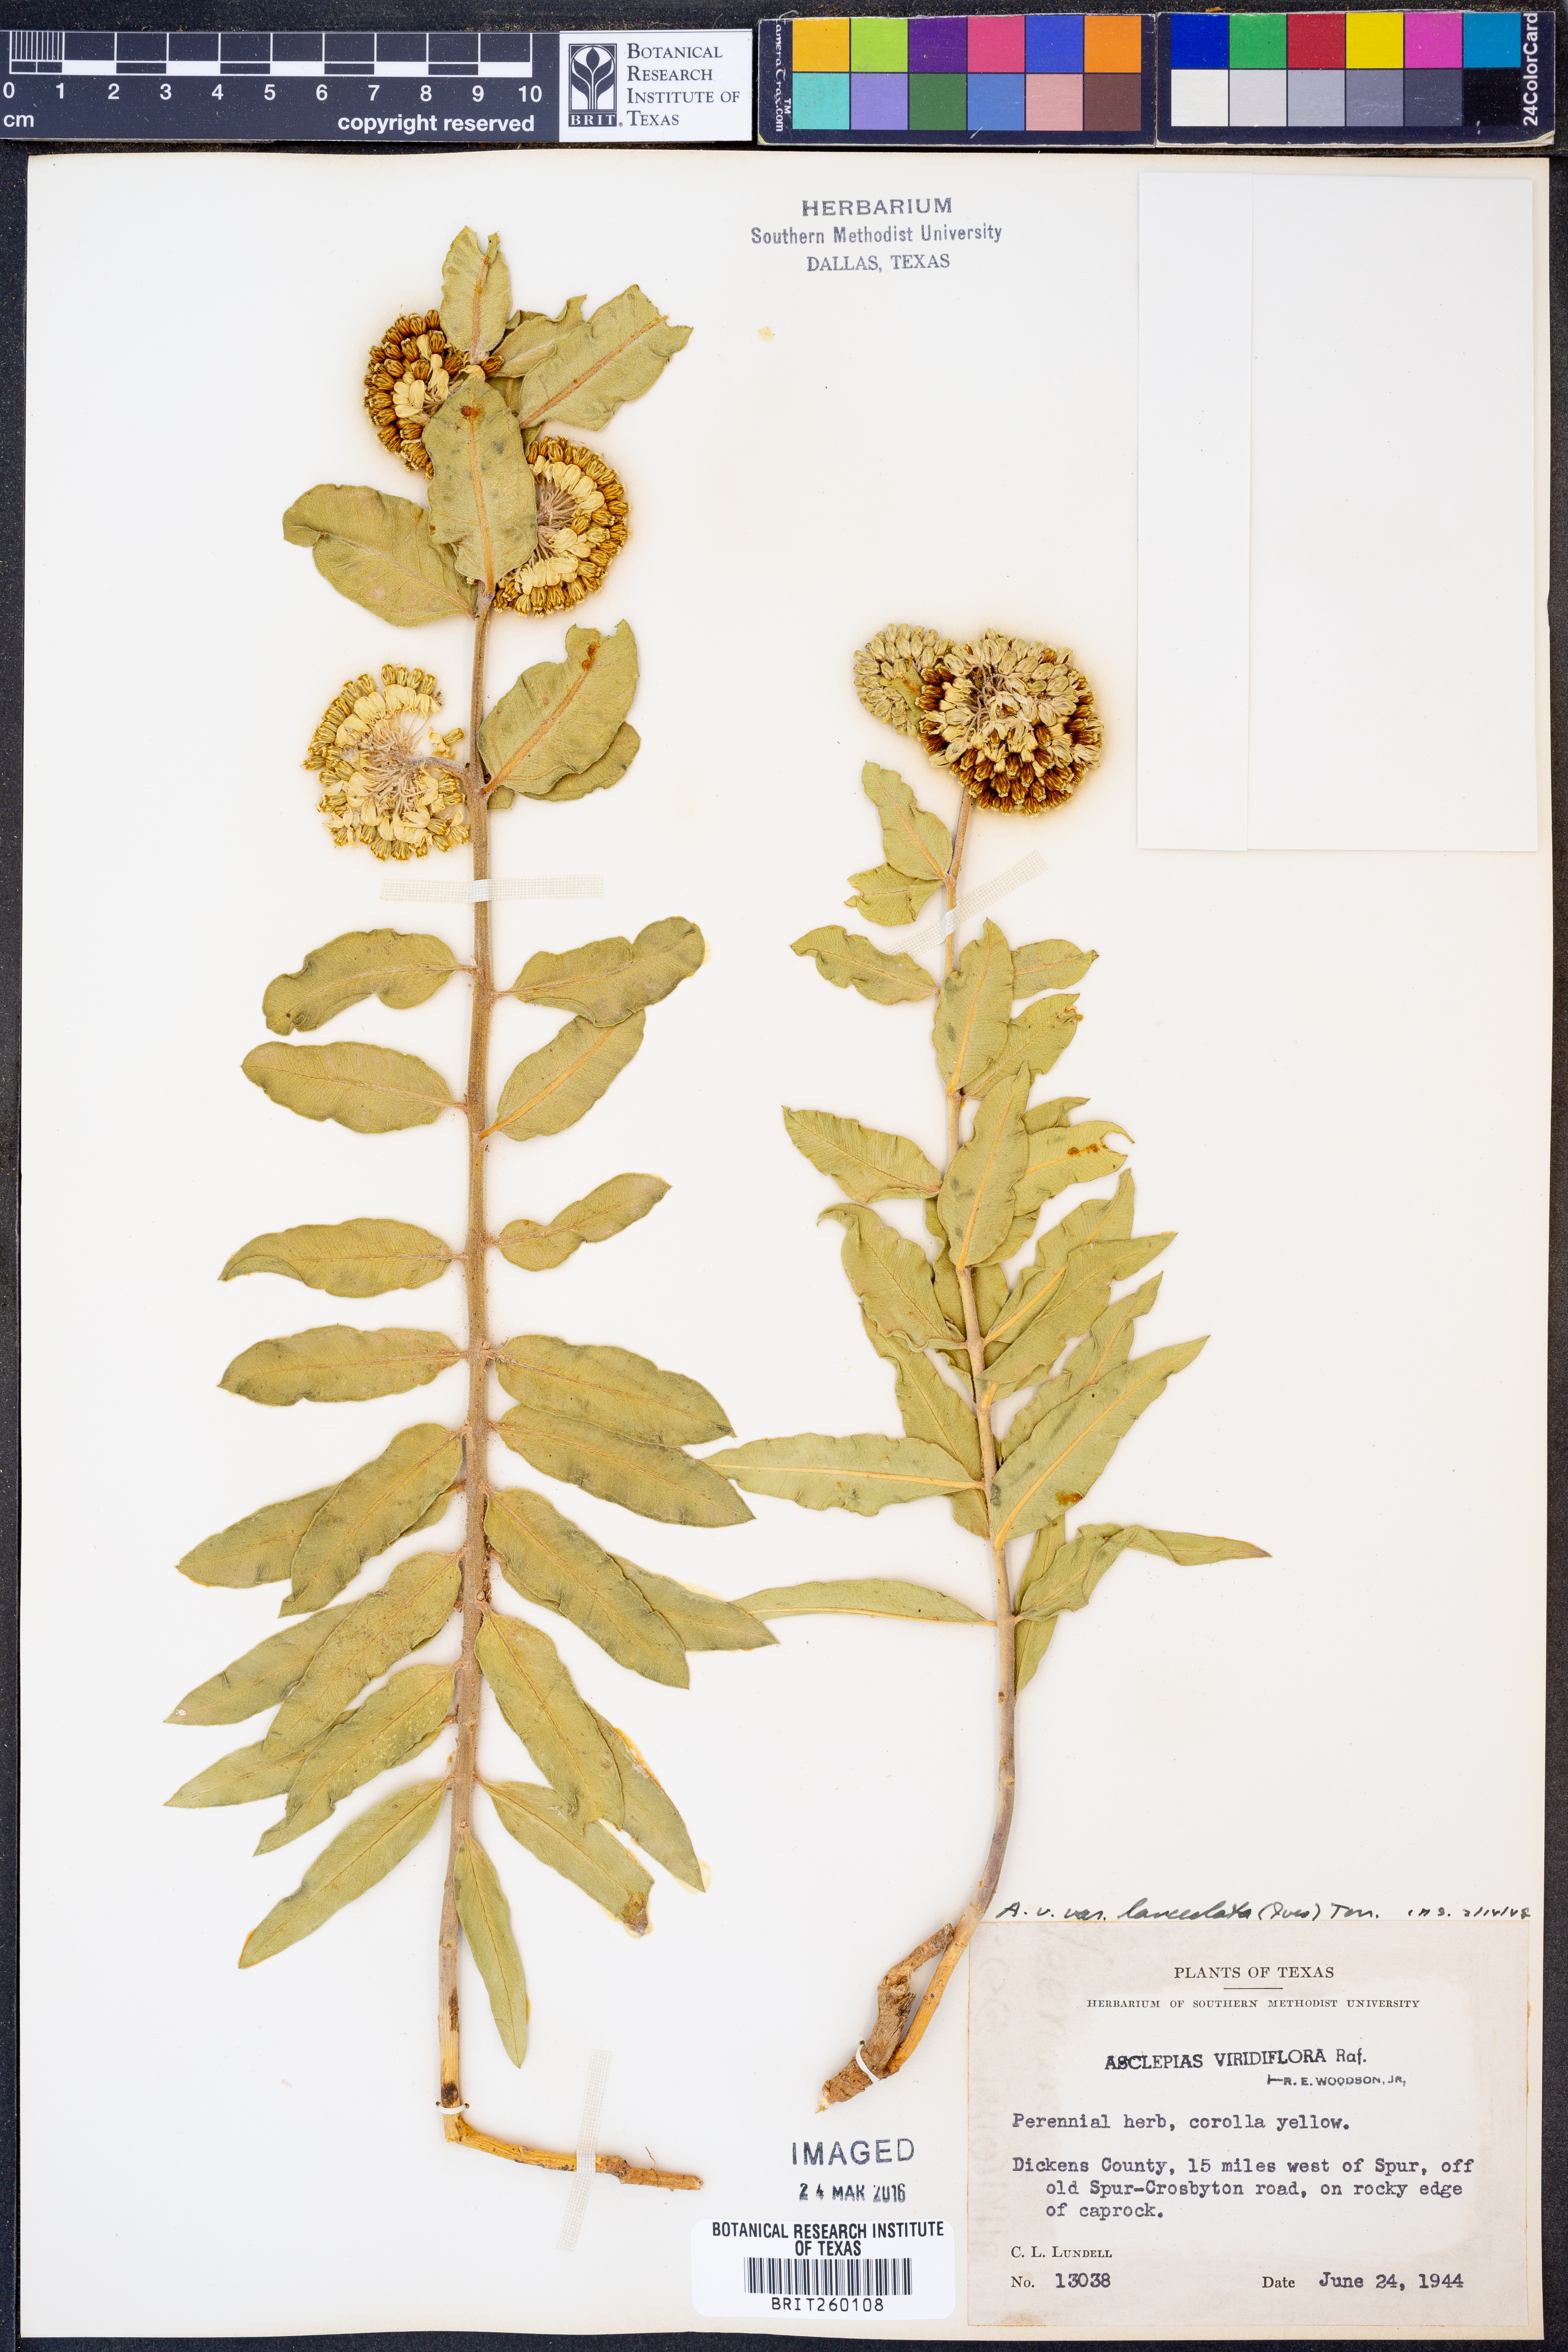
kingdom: Plantae
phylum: Tracheophyta
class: Magnoliopsida
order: Gentianales
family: Apocynaceae
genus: Asclepias
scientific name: Asclepias viridiflora
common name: Green comet milkweed
